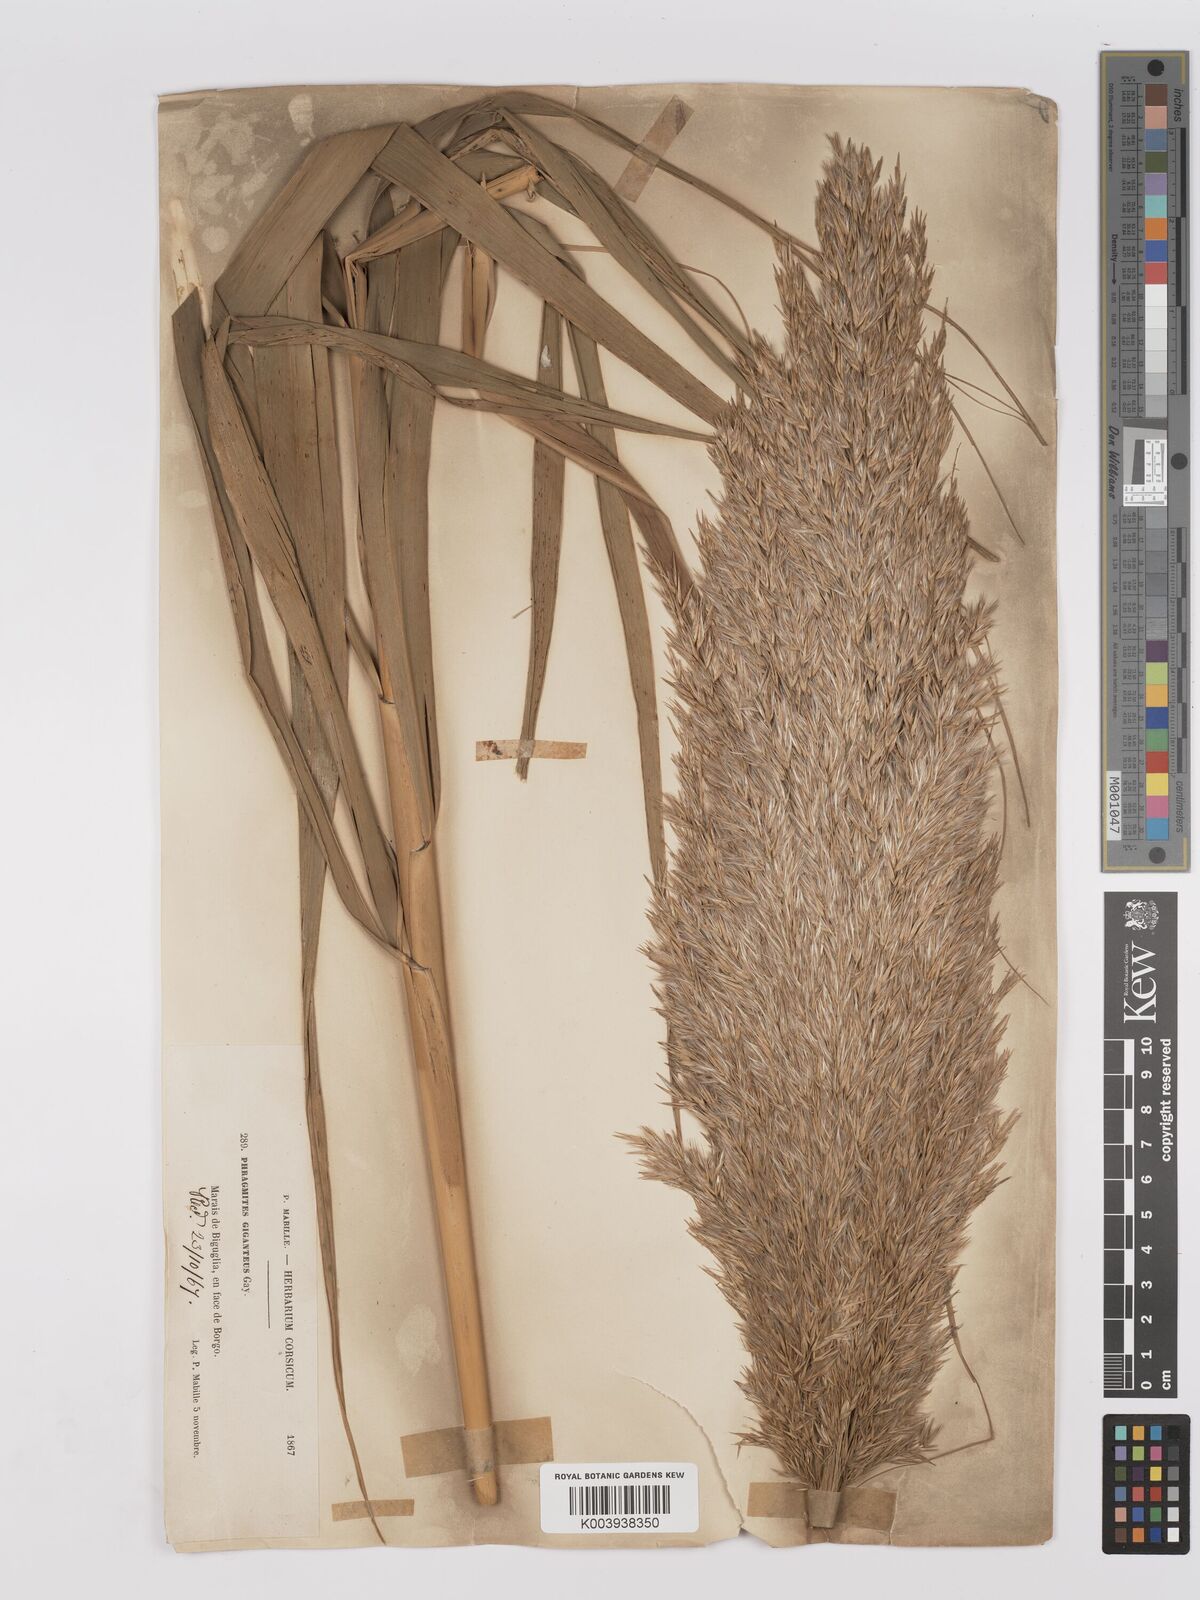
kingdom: Plantae
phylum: Tracheophyta
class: Liliopsida
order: Poales
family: Poaceae
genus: Phragmites
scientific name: Phragmites australis
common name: Common reed
